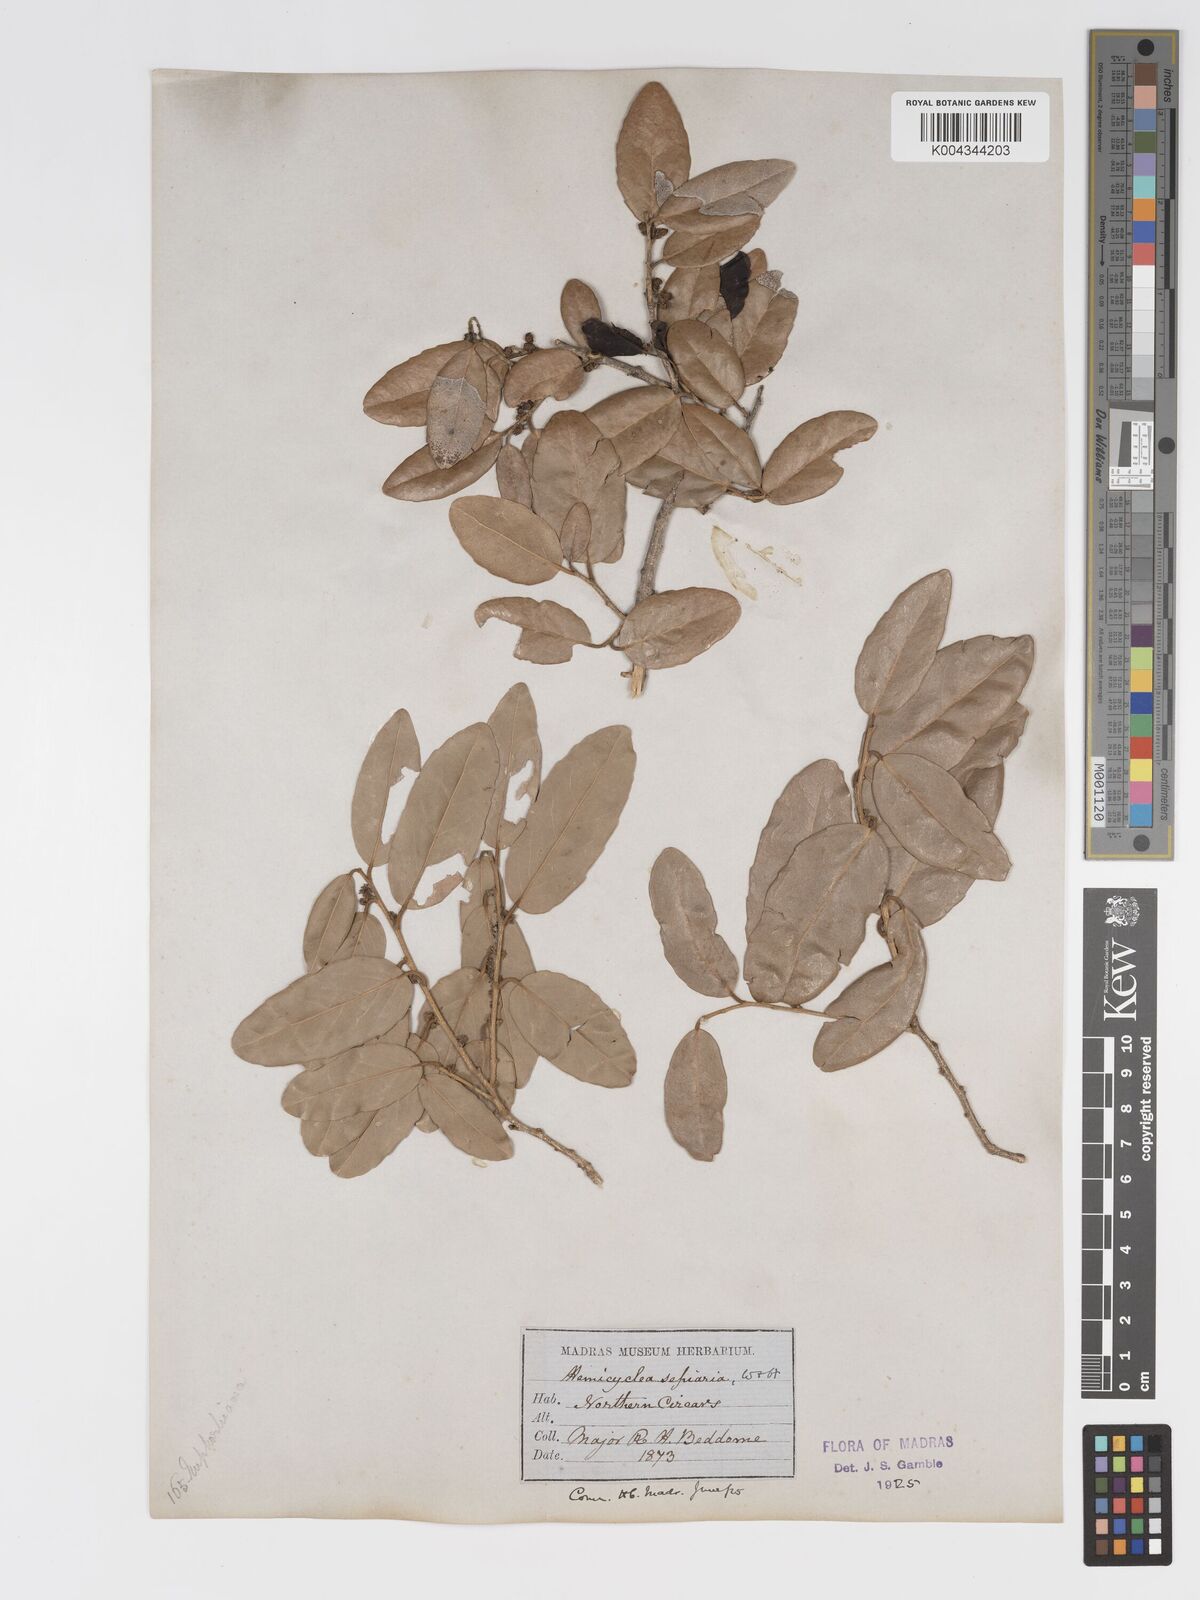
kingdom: Plantae
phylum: Tracheophyta
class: Magnoliopsida
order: Malpighiales
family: Putranjivaceae
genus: Drypetes
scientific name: Drypetes sepiaria
